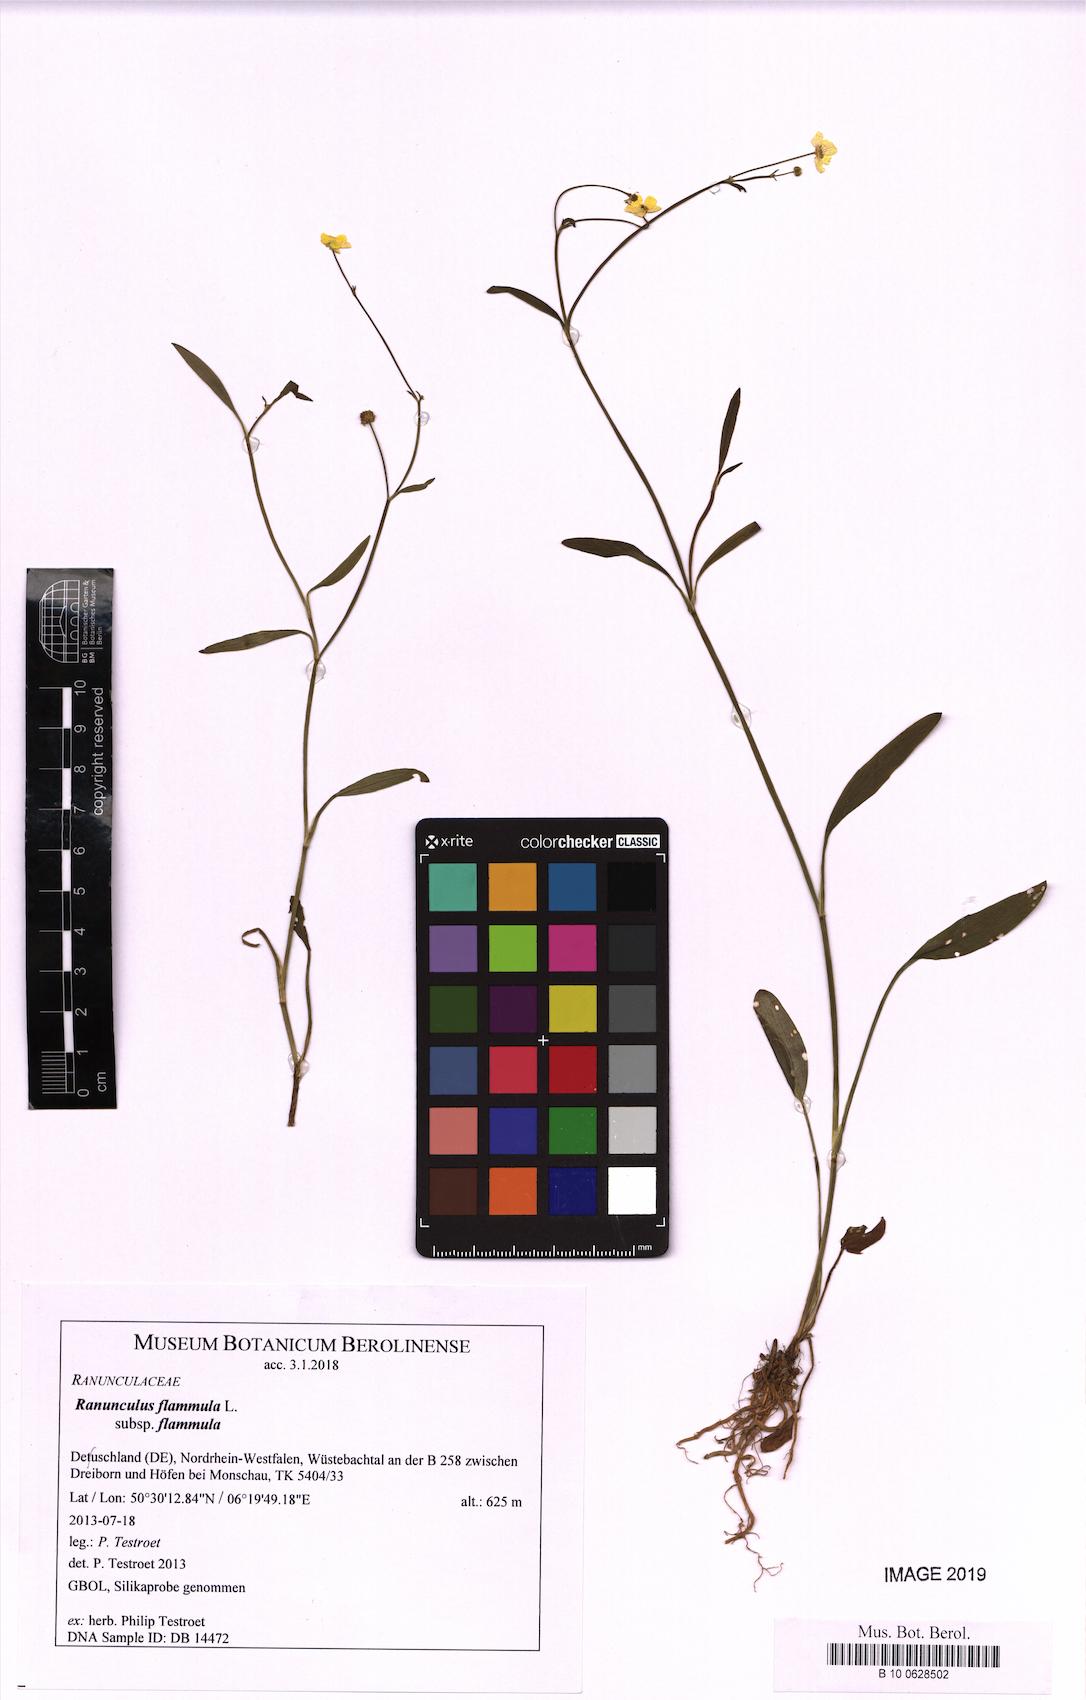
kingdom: Plantae
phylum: Tracheophyta
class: Magnoliopsida
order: Ranunculales
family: Ranunculaceae
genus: Ranunculus
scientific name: Ranunculus flammula
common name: Lesser spearwort
